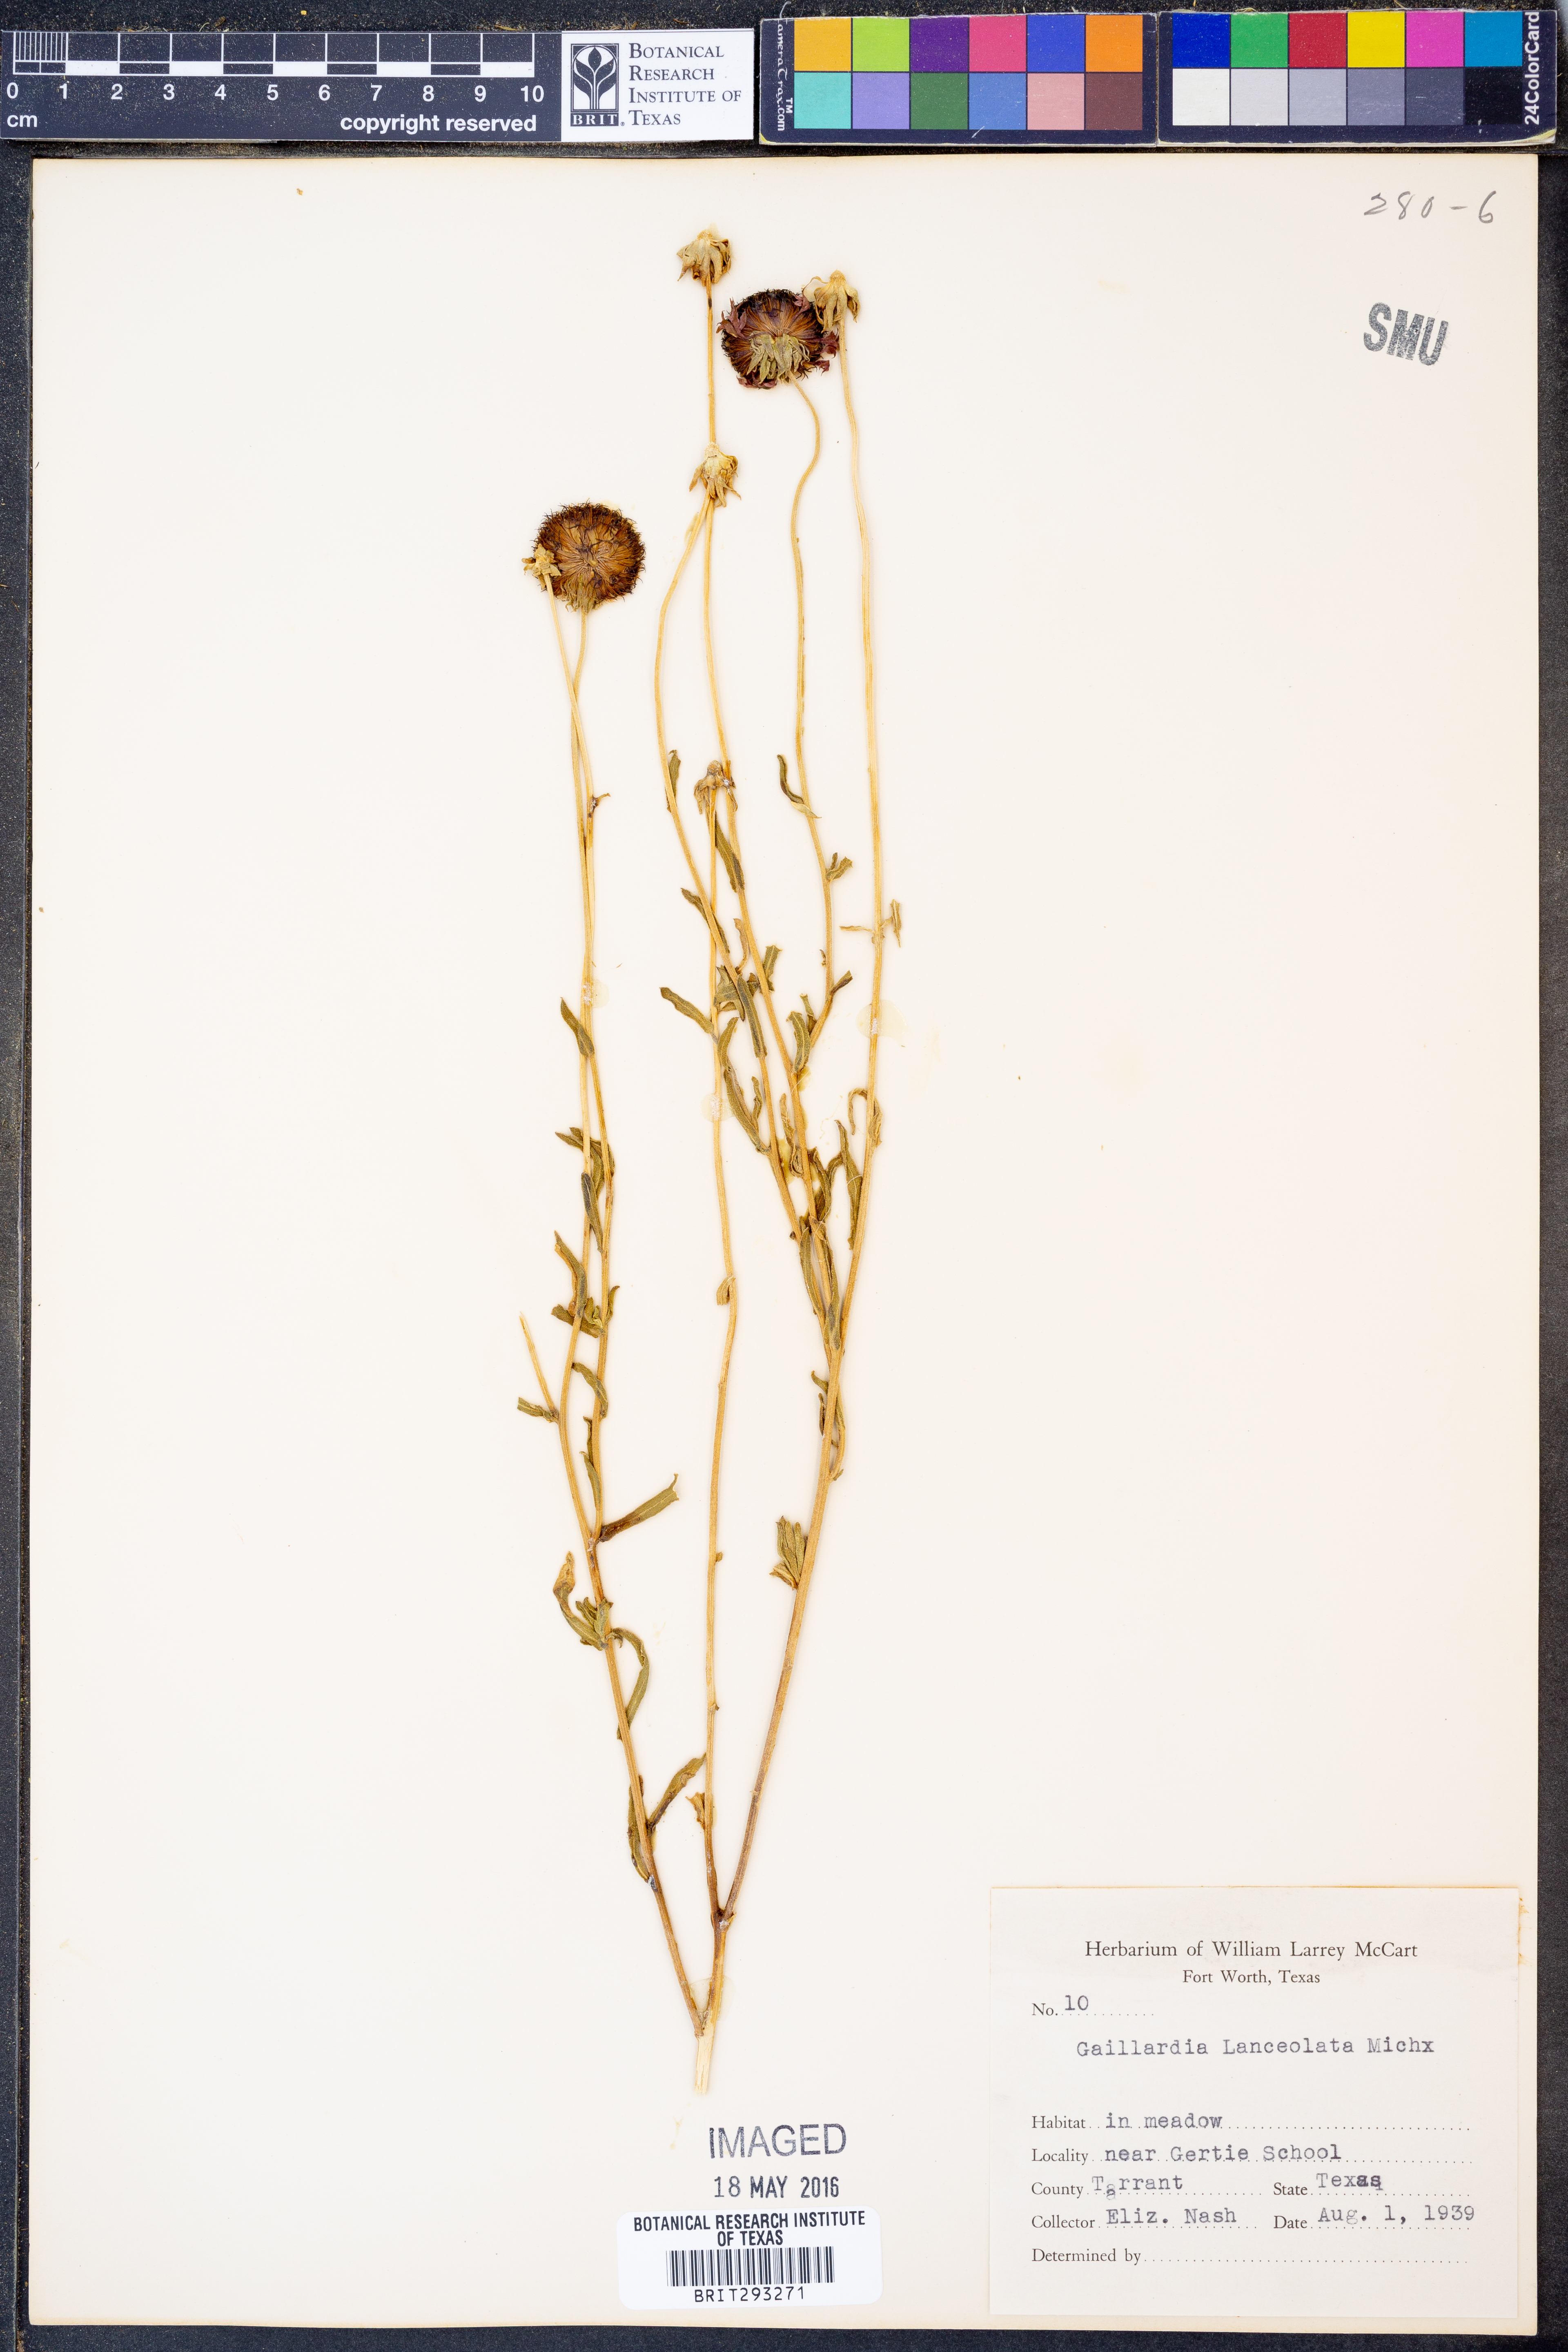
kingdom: Plantae
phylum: Tracheophyta
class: Magnoliopsida
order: Asterales
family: Asteraceae
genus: Gaillardia
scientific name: Gaillardia aestivalis
